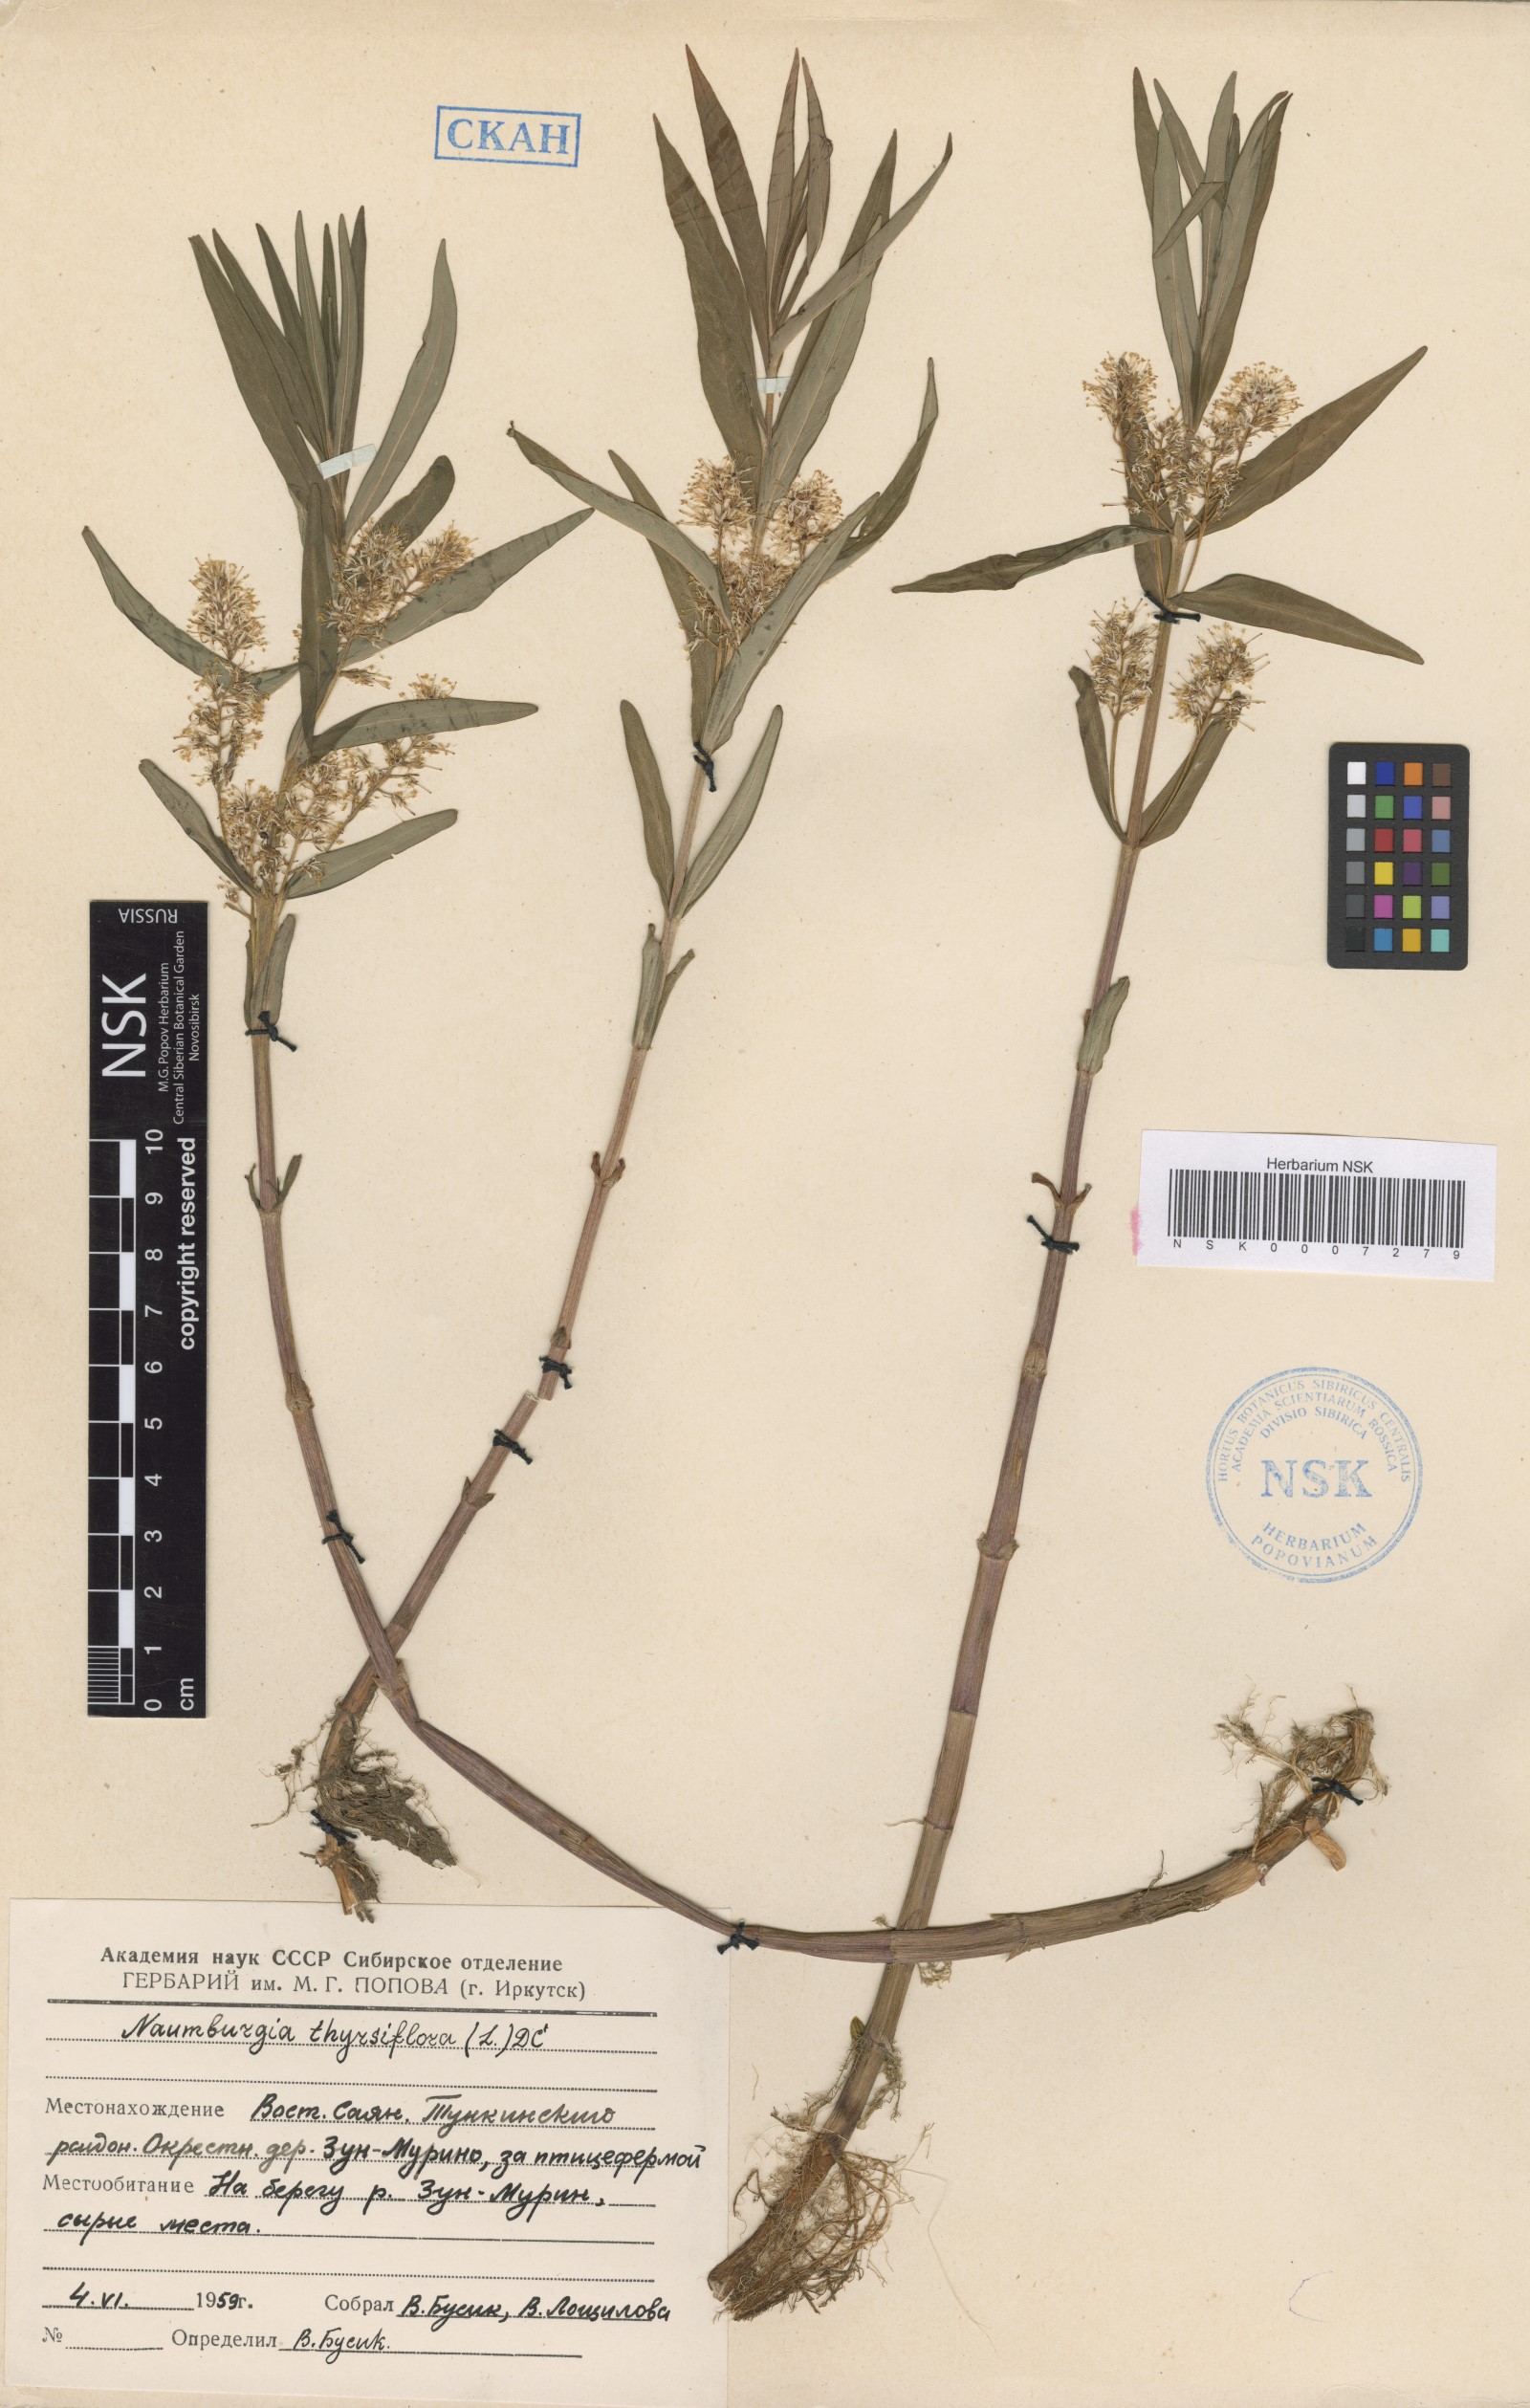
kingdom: Plantae
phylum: Tracheophyta
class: Magnoliopsida
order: Ericales
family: Primulaceae
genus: Lysimachia
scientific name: Lysimachia thyrsiflora
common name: Tufted loosestrife
